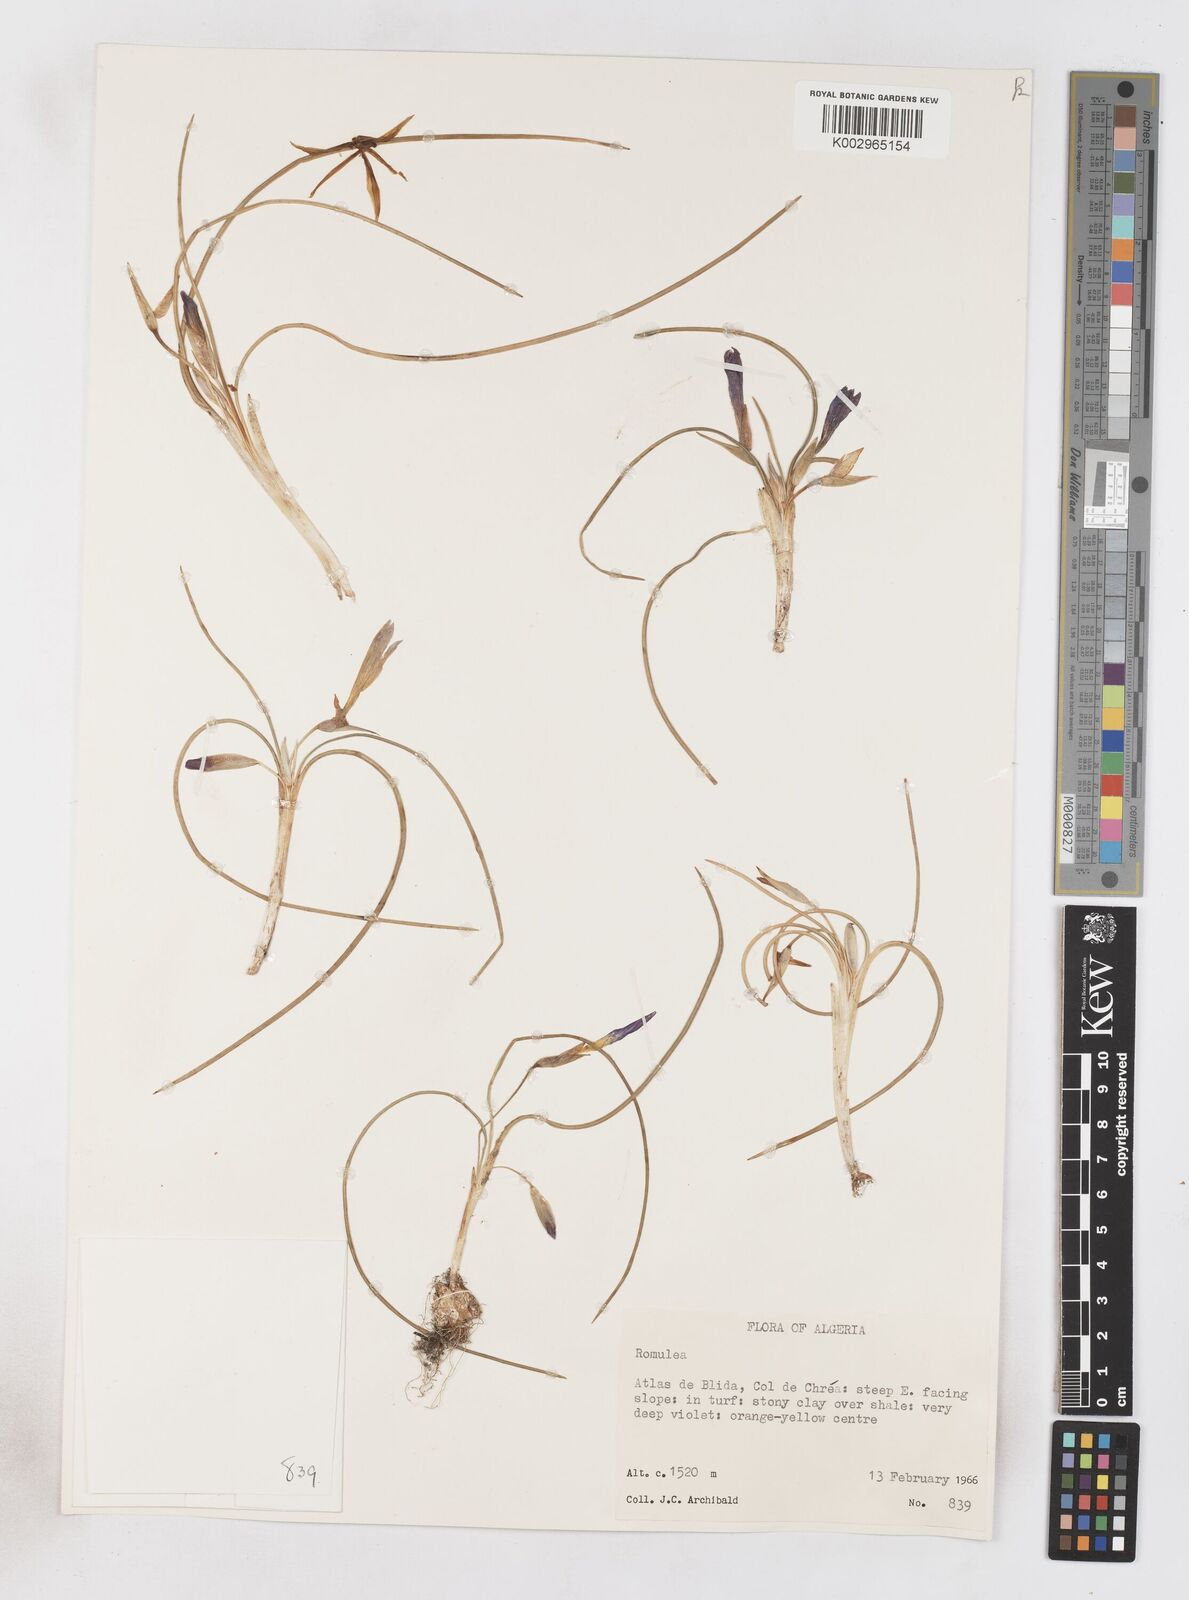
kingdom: Plantae
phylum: Tracheophyta
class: Liliopsida
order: Asparagales
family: Iridaceae
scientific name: Iridaceae
